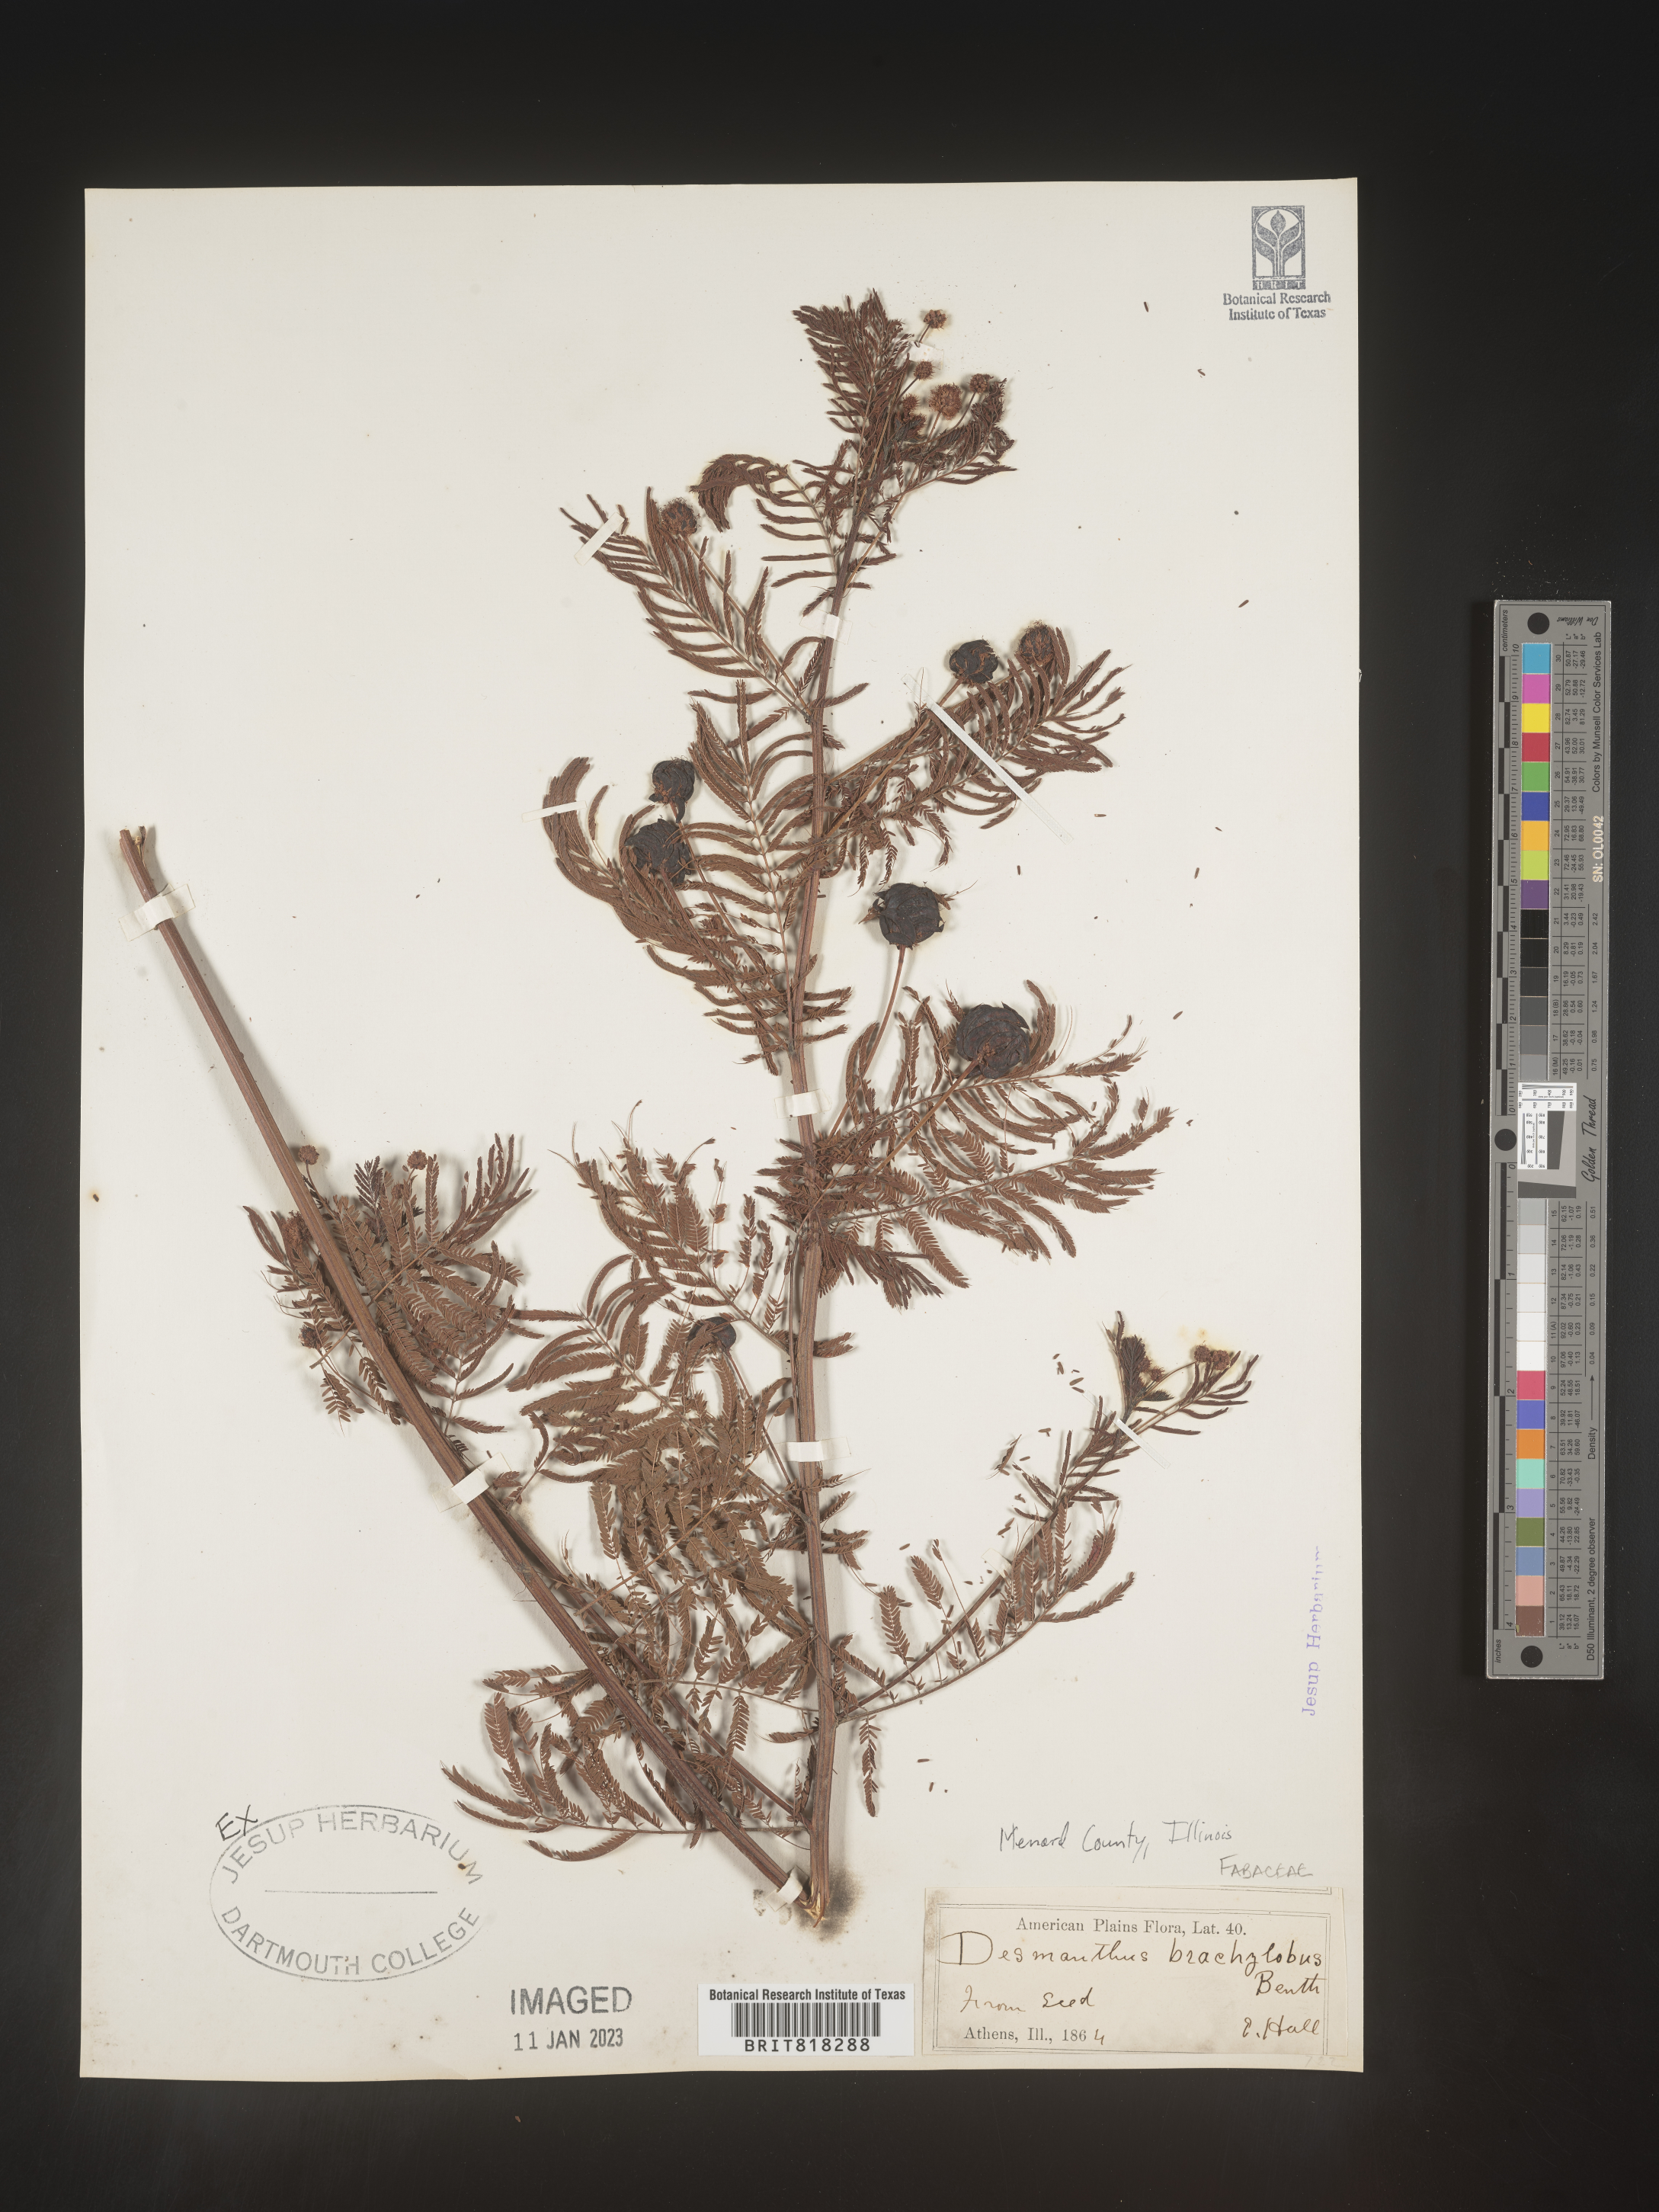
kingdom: Plantae
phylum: Tracheophyta
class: Magnoliopsida
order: Fabales
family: Fabaceae
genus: Desmanthus
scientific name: Desmanthus
